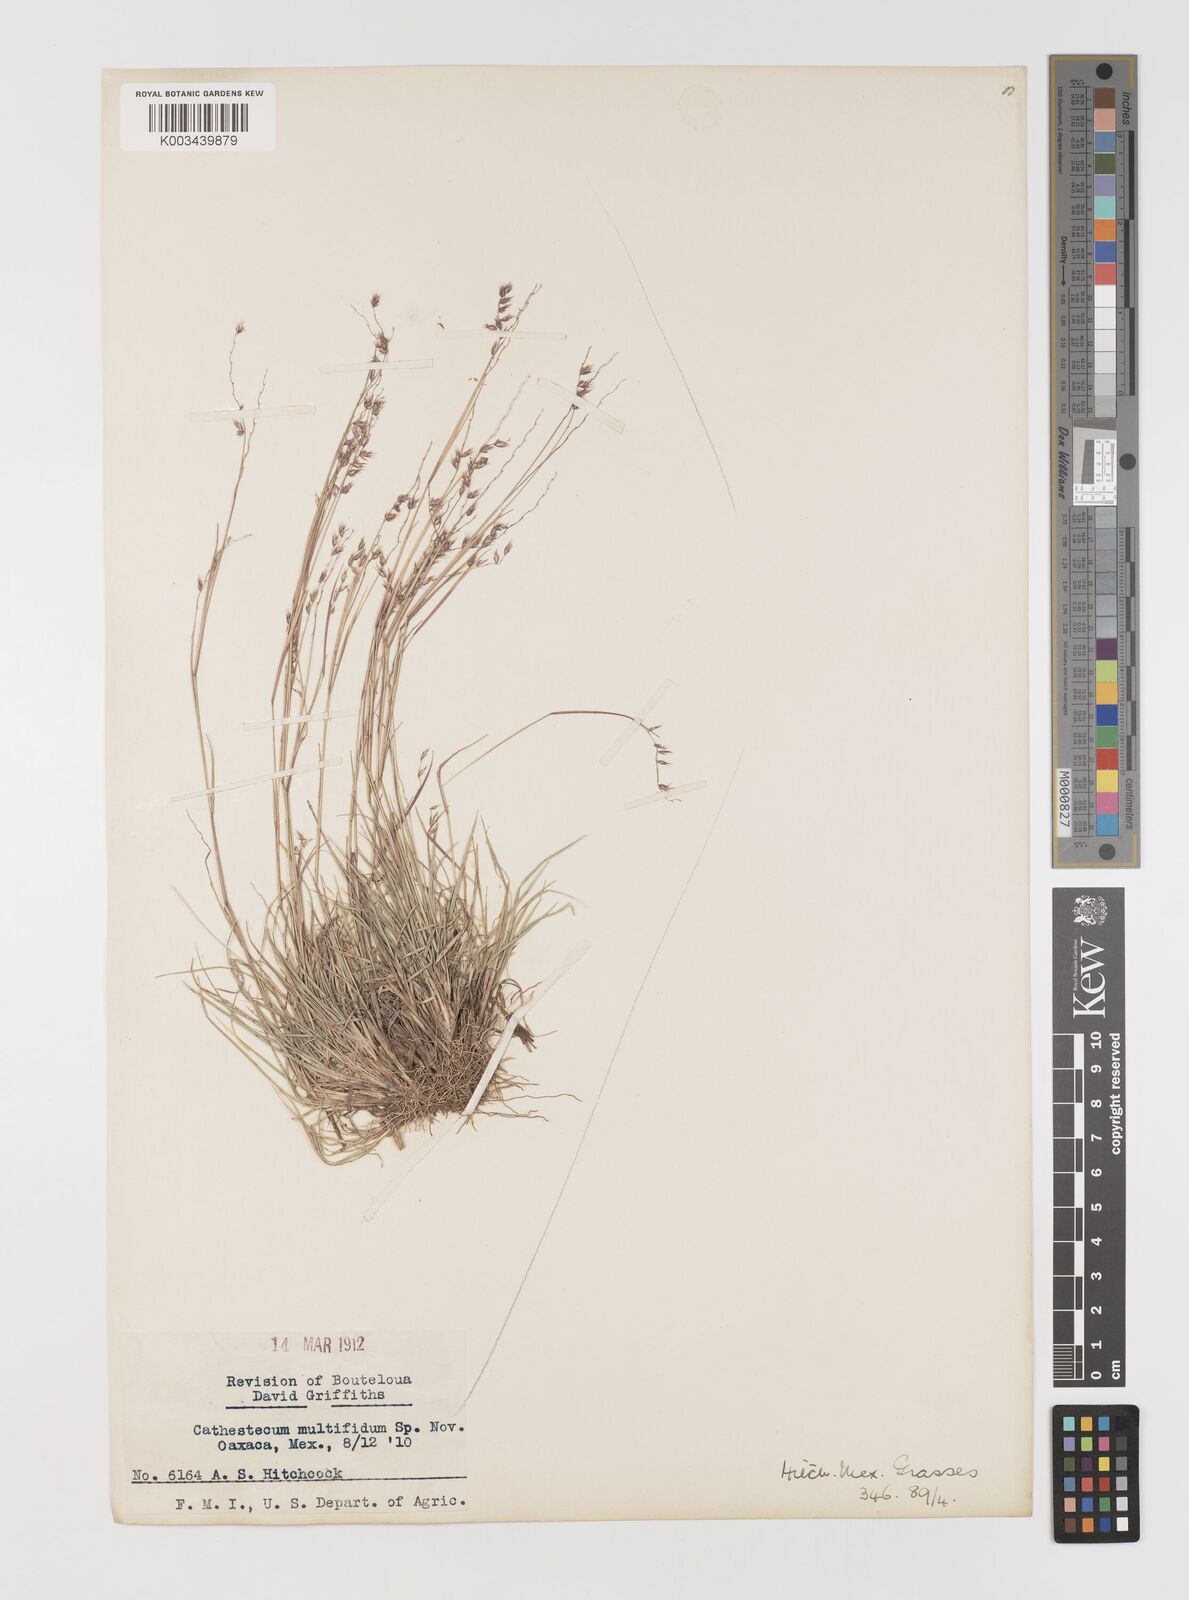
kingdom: Plantae
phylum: Tracheophyta
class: Liliopsida
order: Poales
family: Poaceae
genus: Bouteloua
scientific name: Bouteloua multifida
